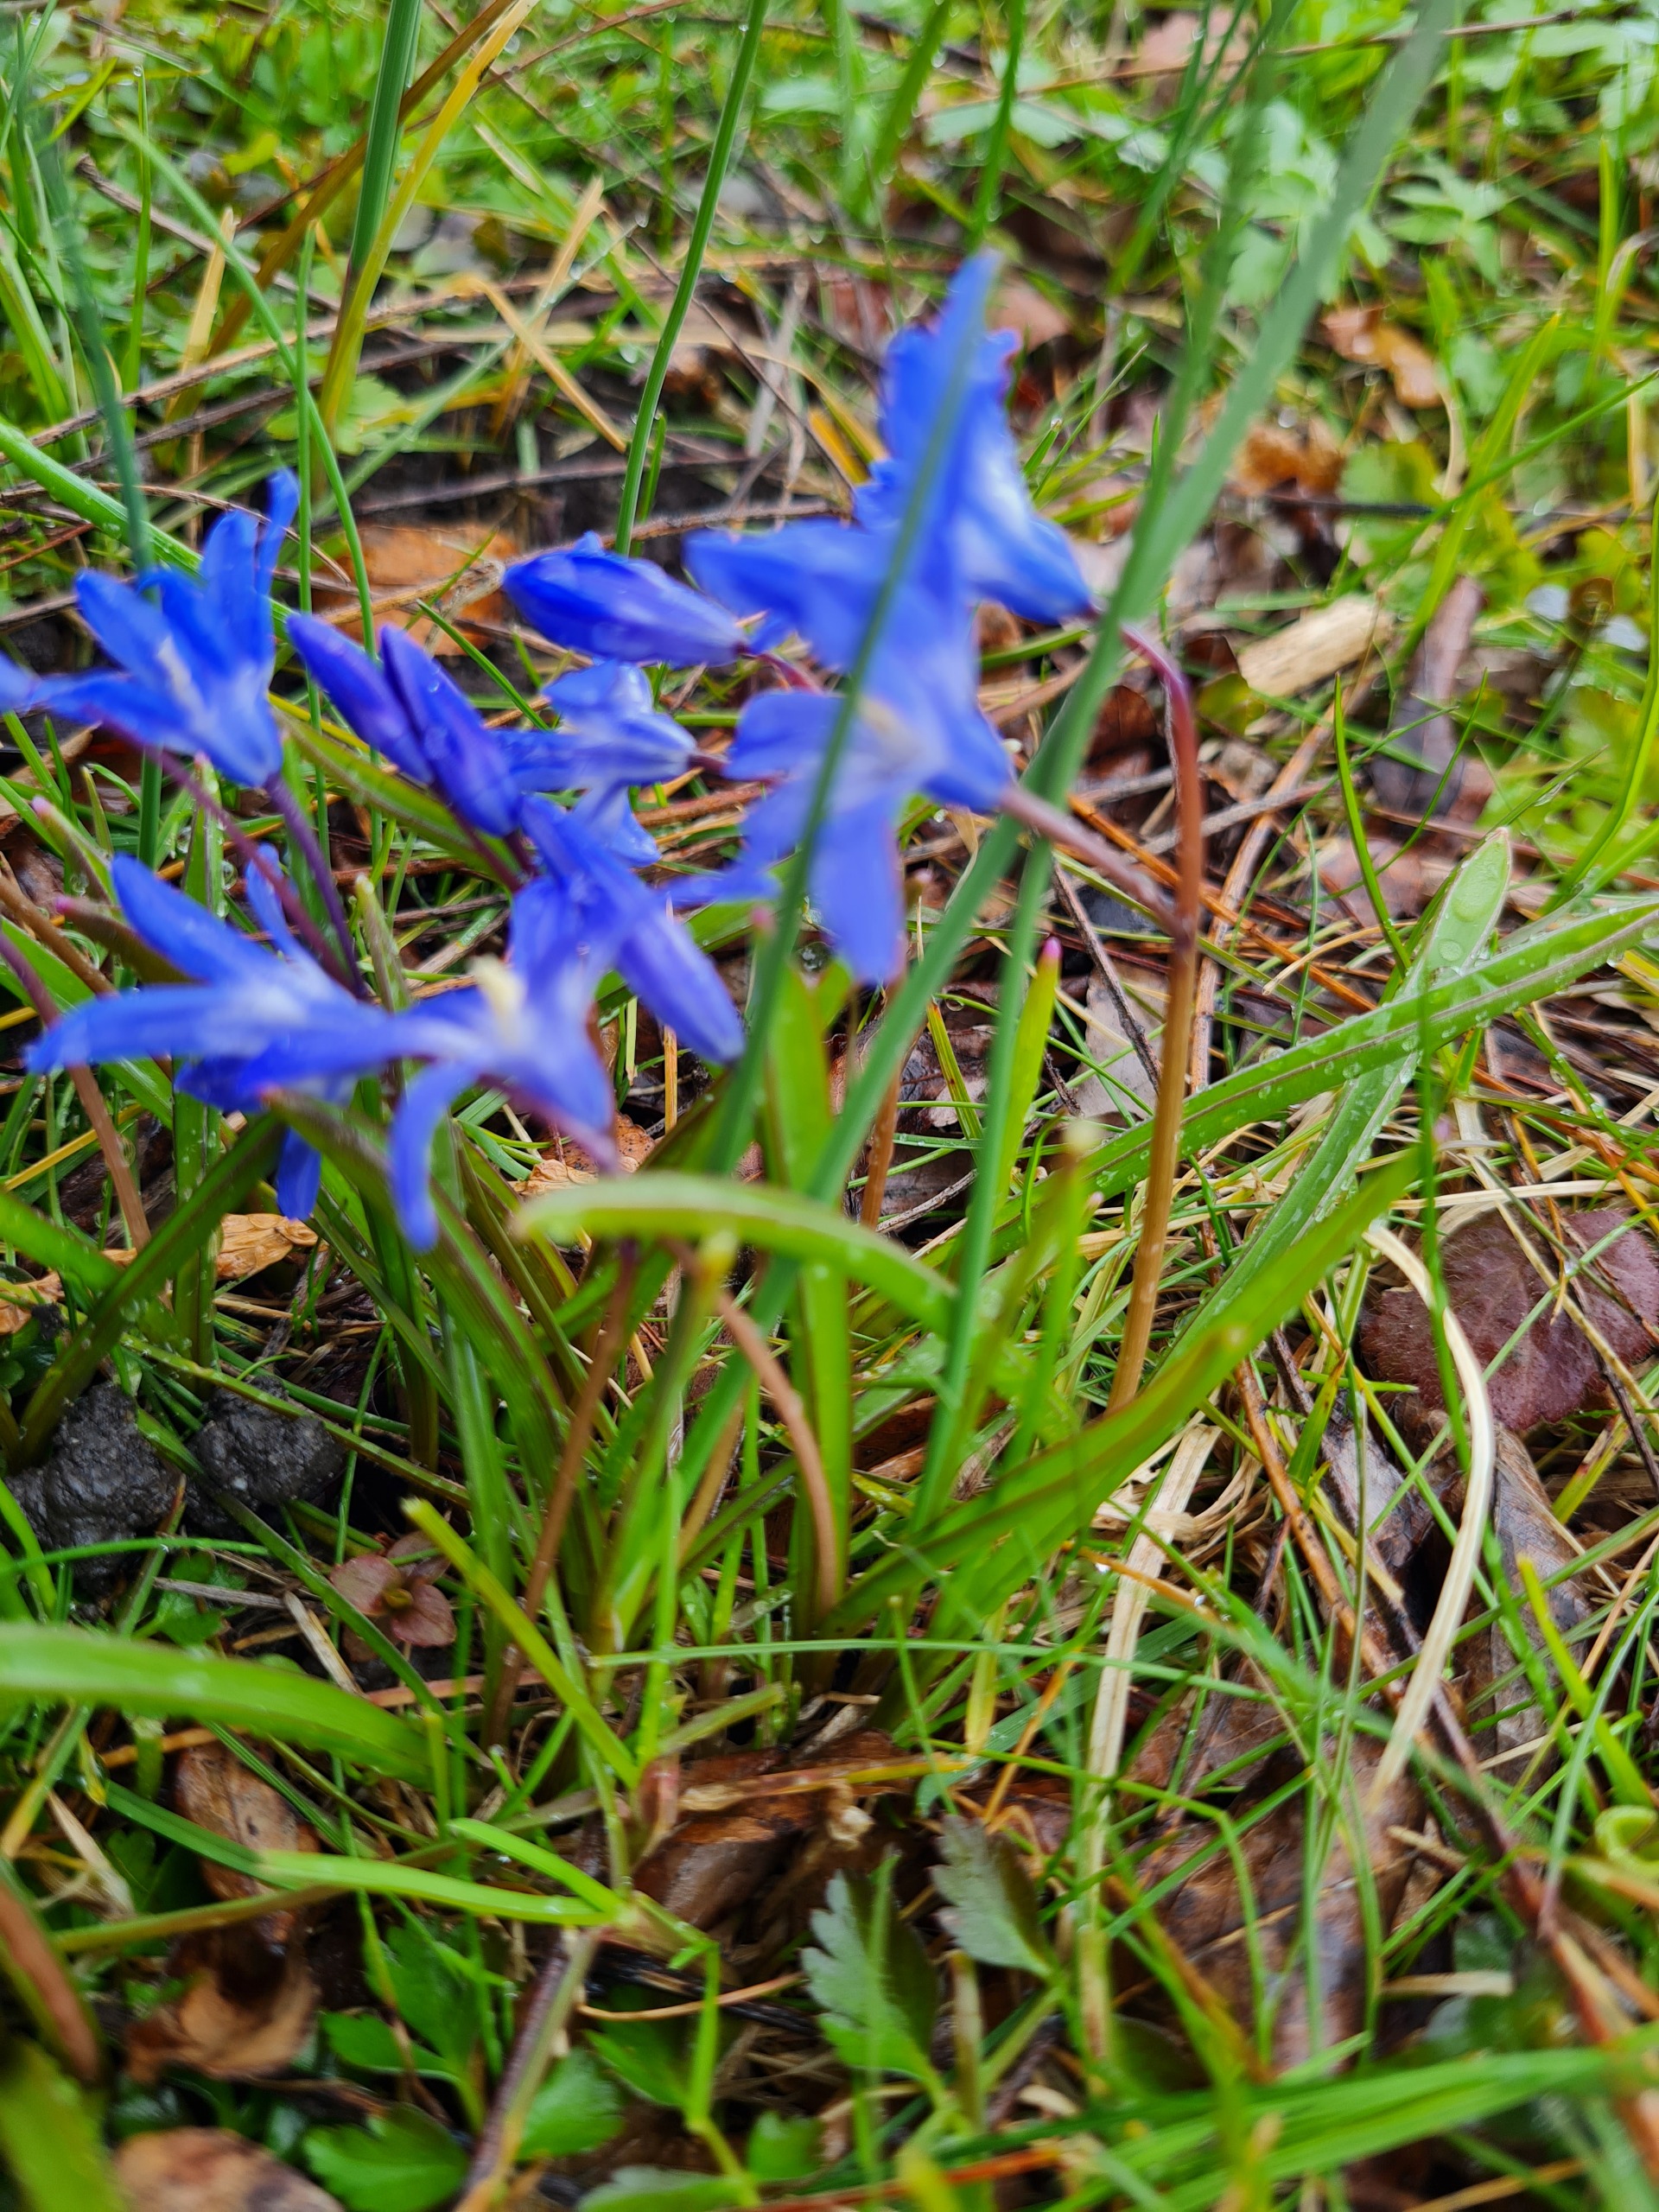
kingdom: Plantae
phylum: Tracheophyta
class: Liliopsida
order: Asparagales
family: Asparagaceae
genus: Scilla
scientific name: Scilla forbesii
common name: Almindelig snepryd
